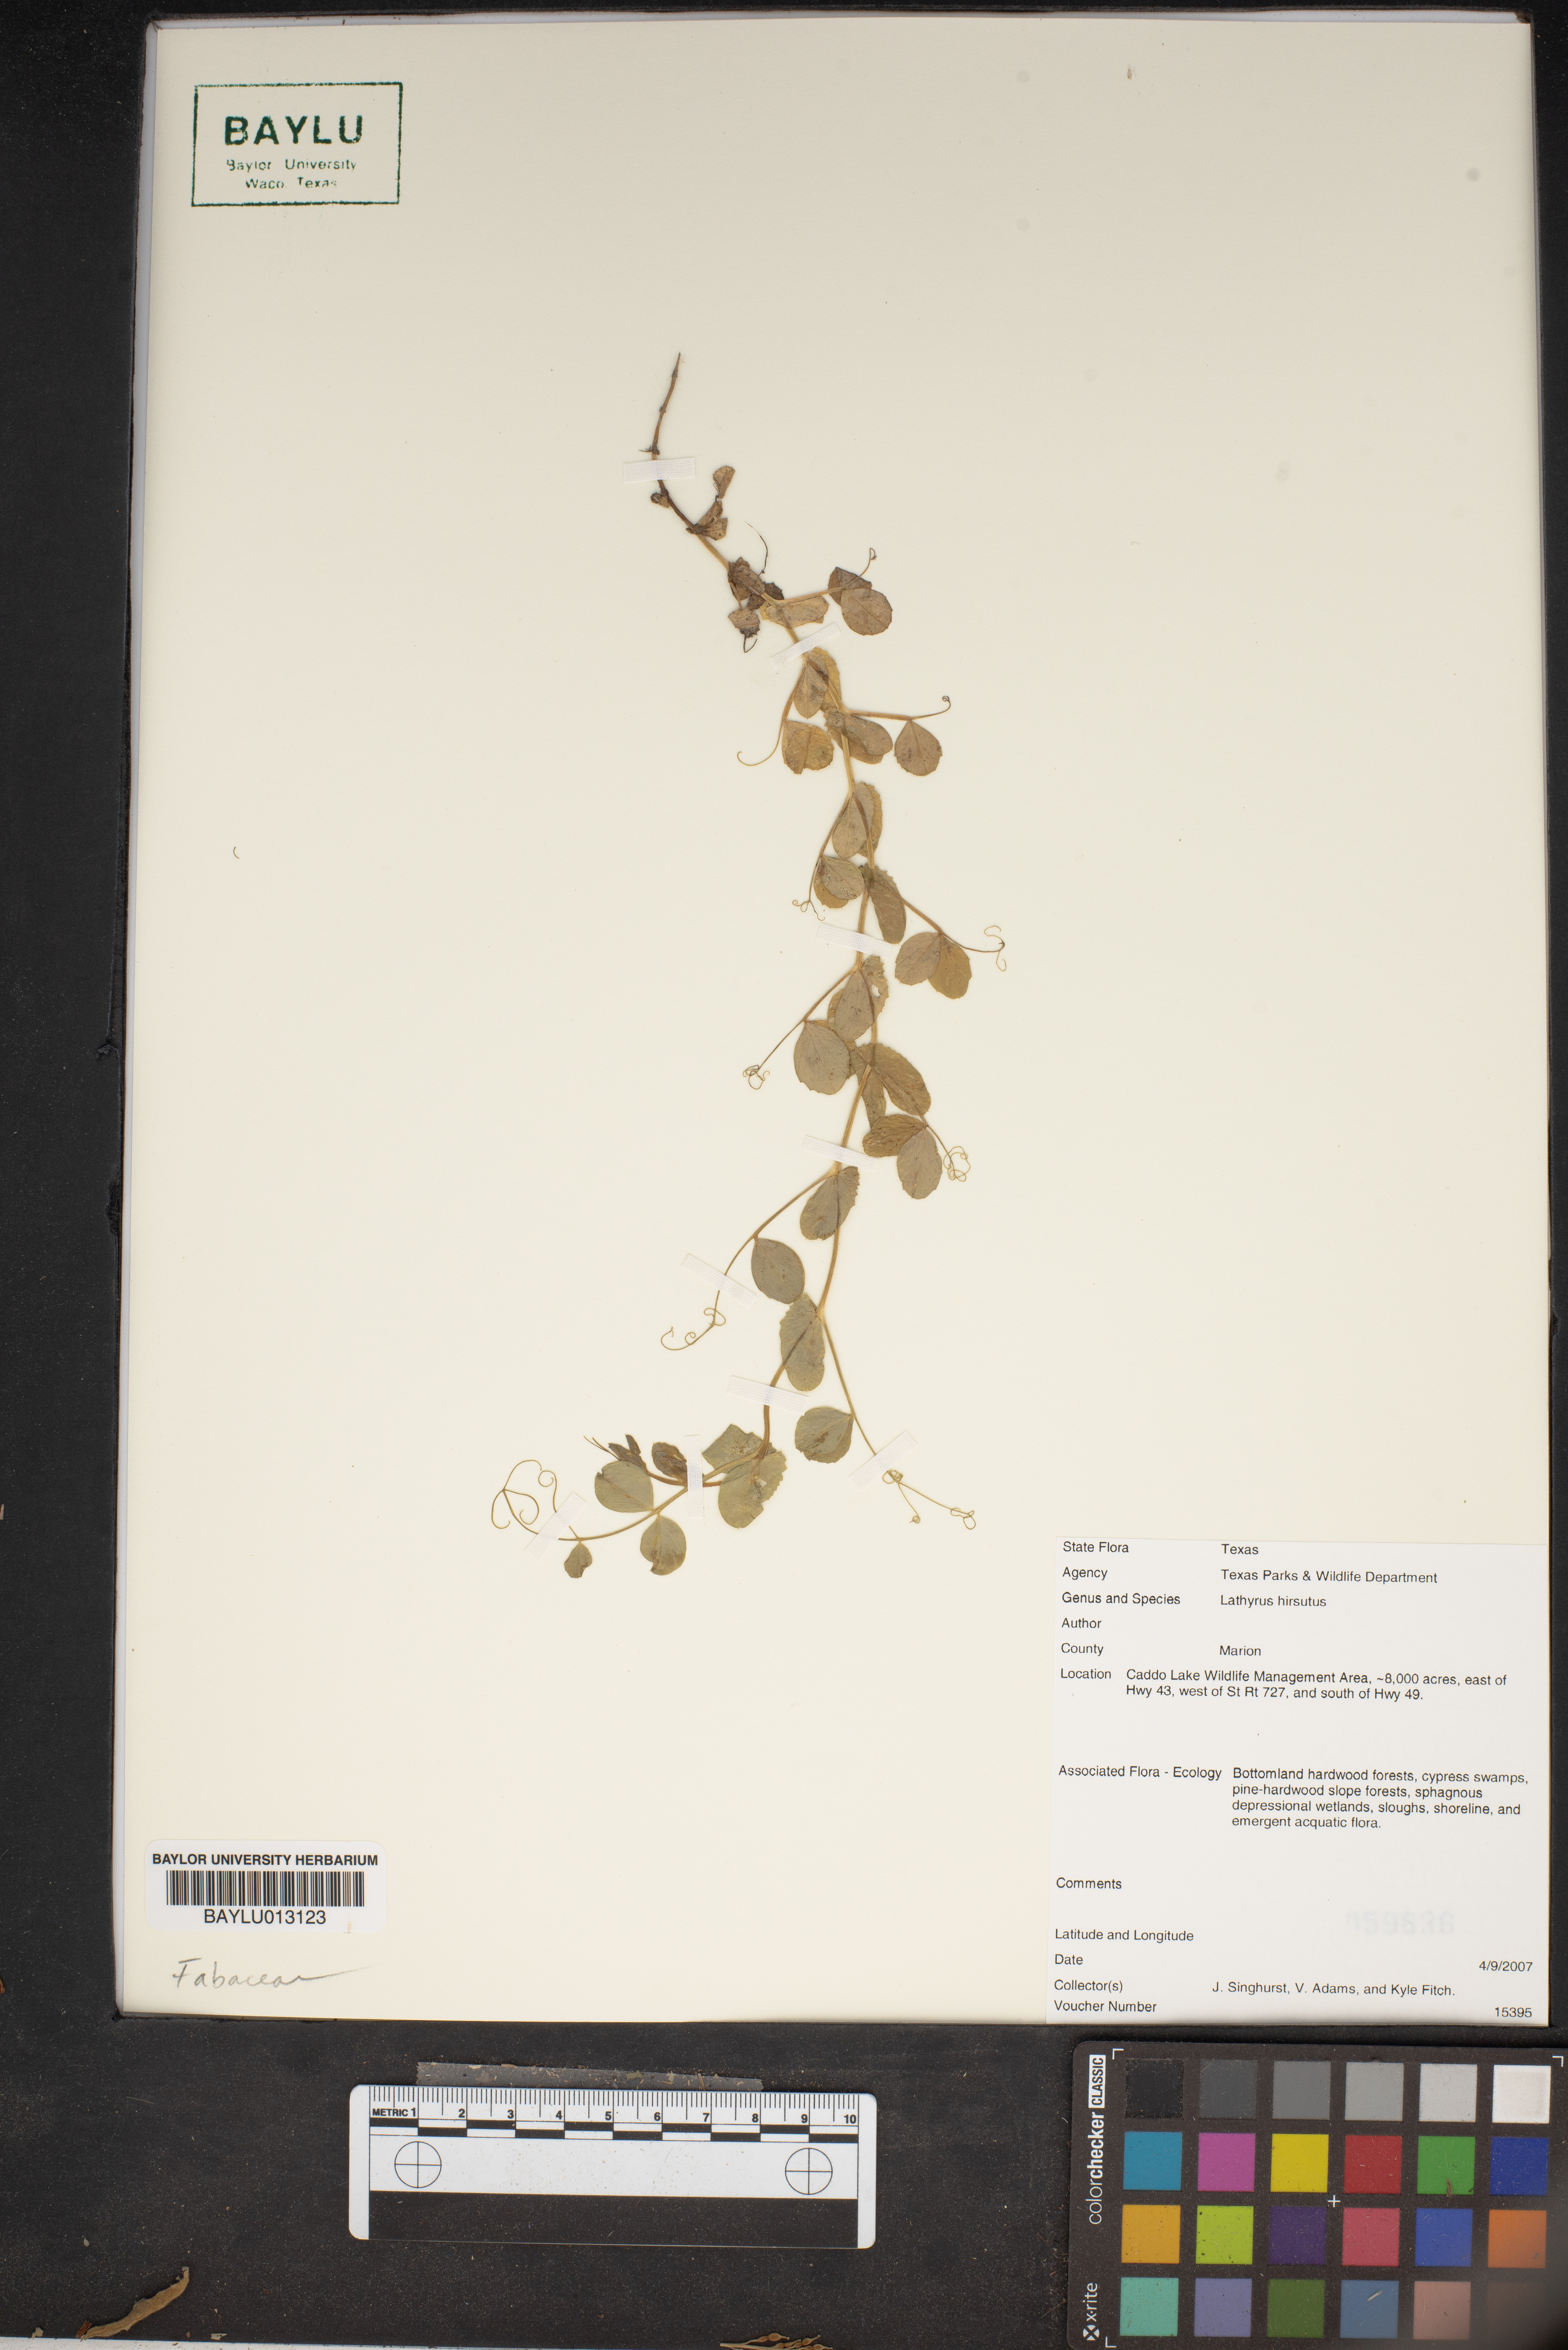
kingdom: Plantae
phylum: Tracheophyta
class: Magnoliopsida
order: Fabales
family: Fabaceae
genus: Lathyrus
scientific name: Lathyrus hirsutus
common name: Hairy vetchling
